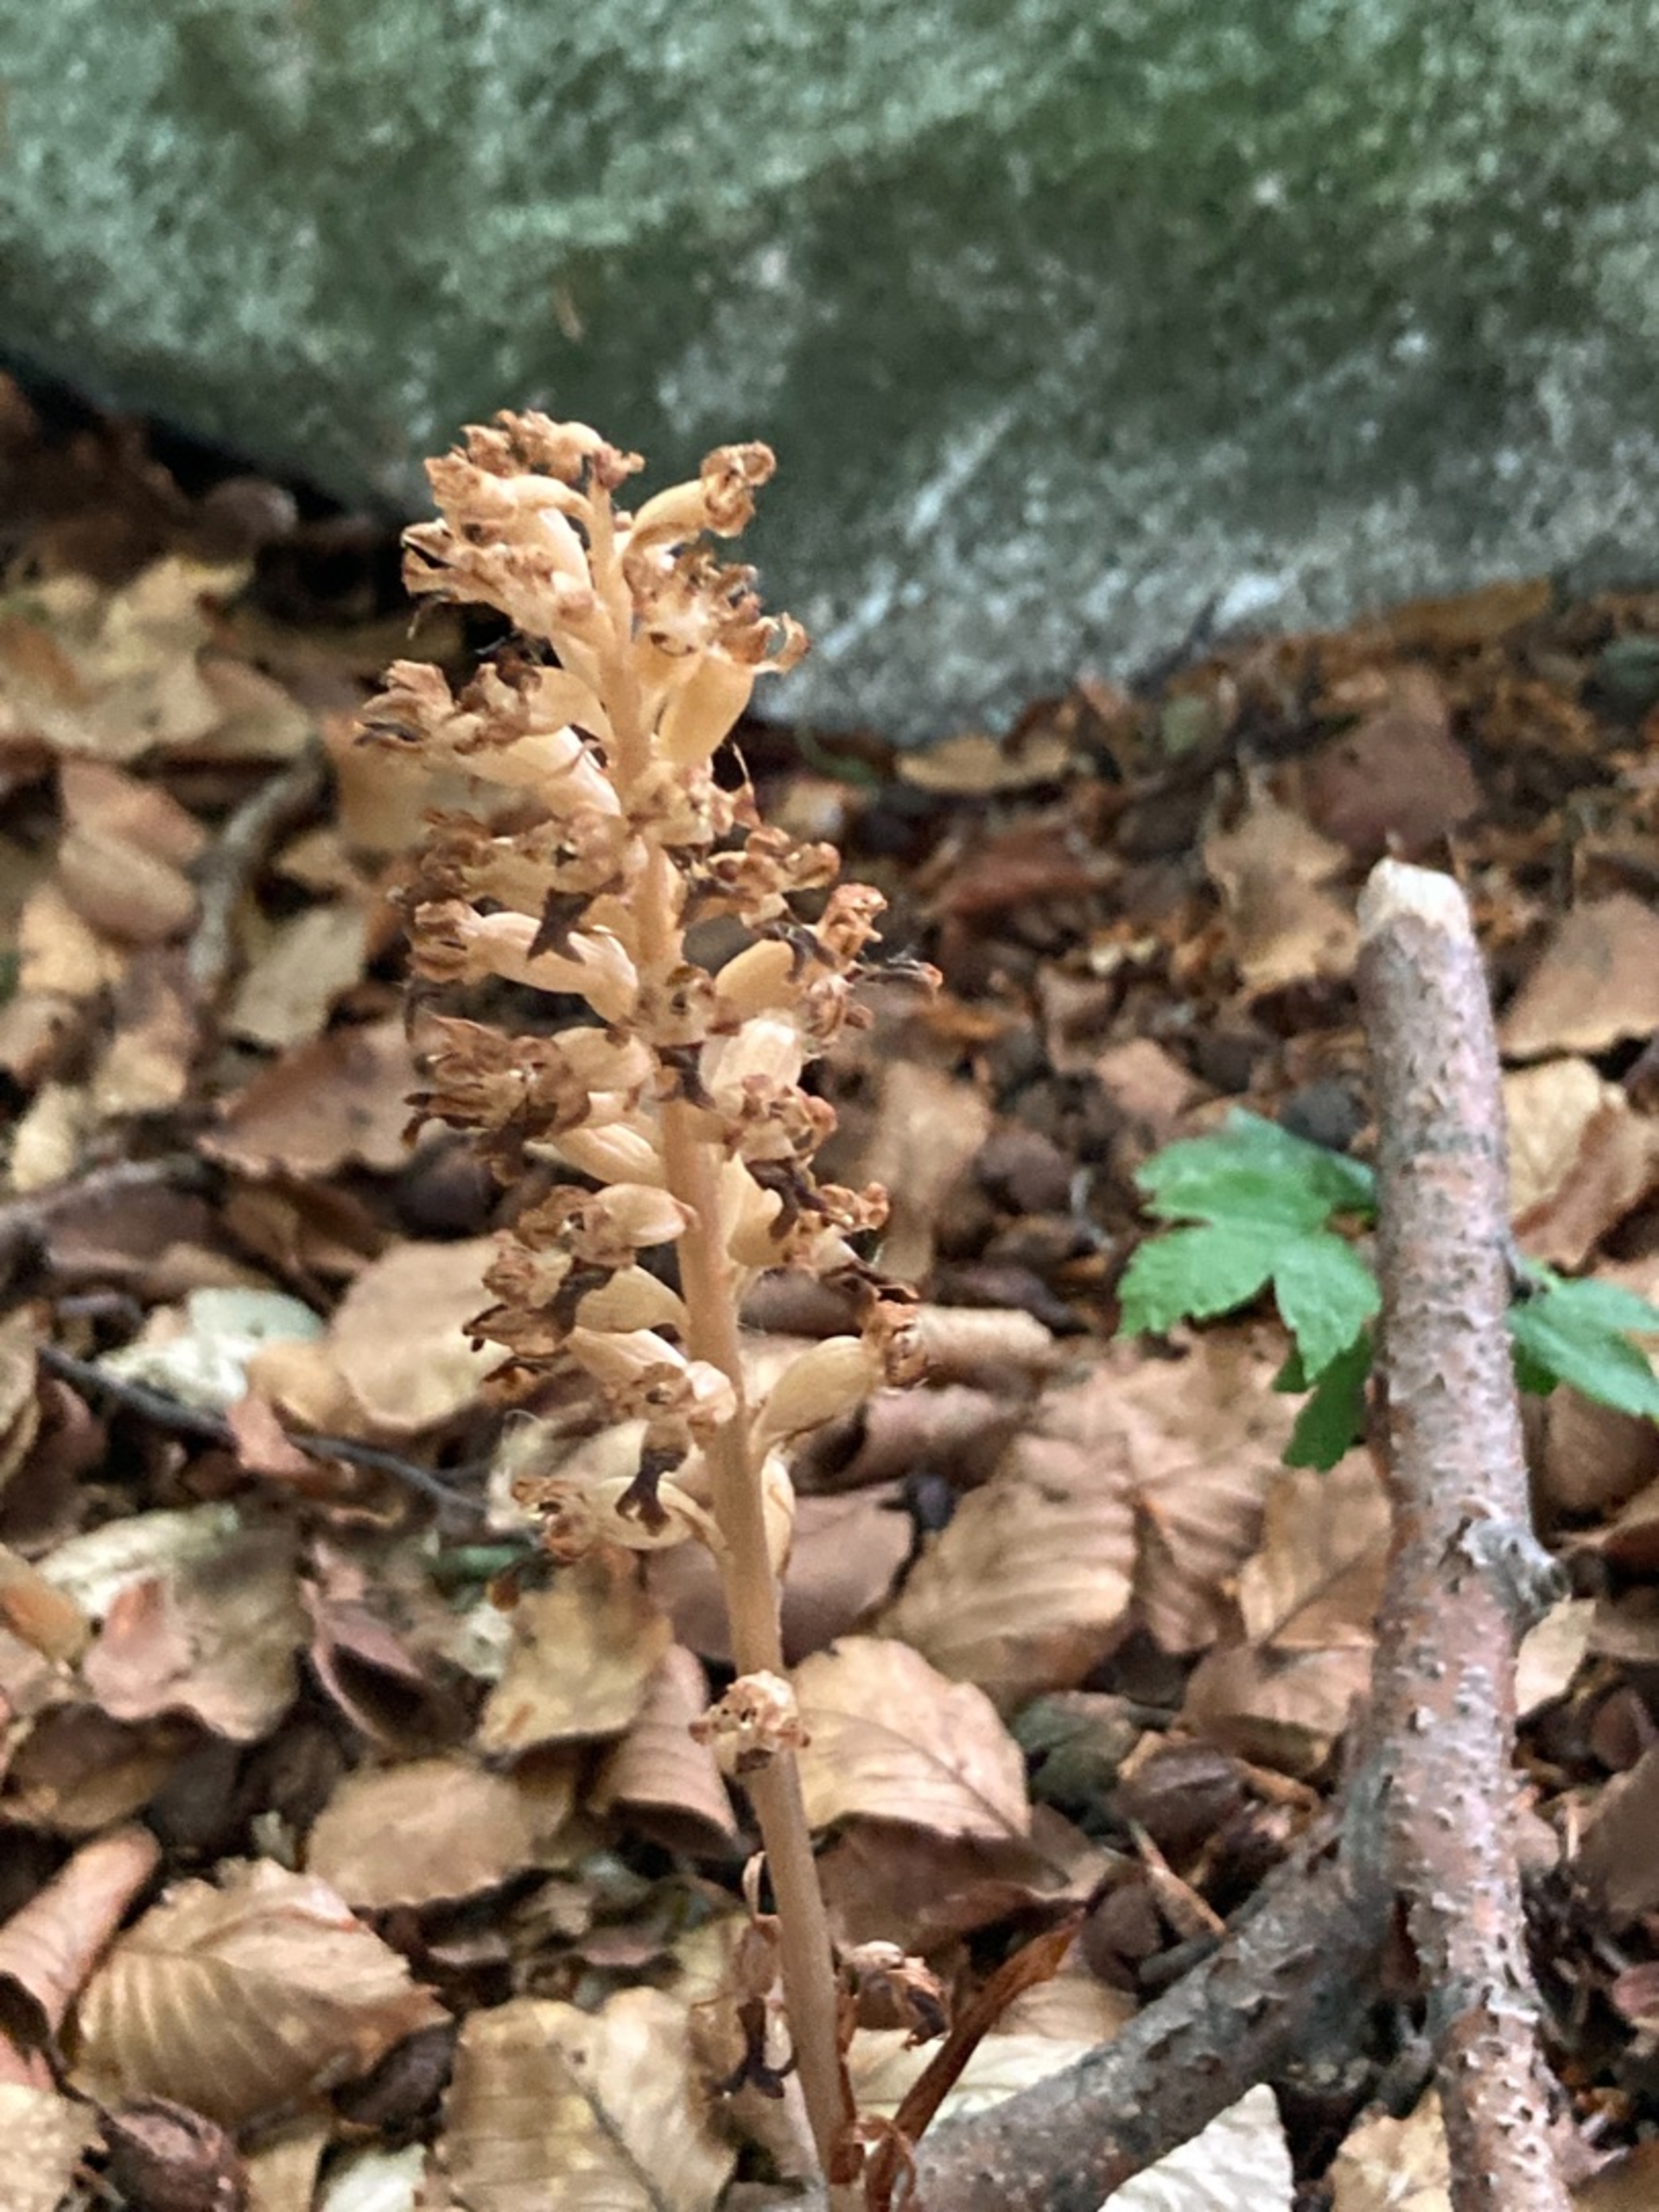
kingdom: Plantae
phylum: Tracheophyta
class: Liliopsida
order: Asparagales
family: Orchidaceae
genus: Neottia
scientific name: Neottia nidus-avis
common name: Rederod
